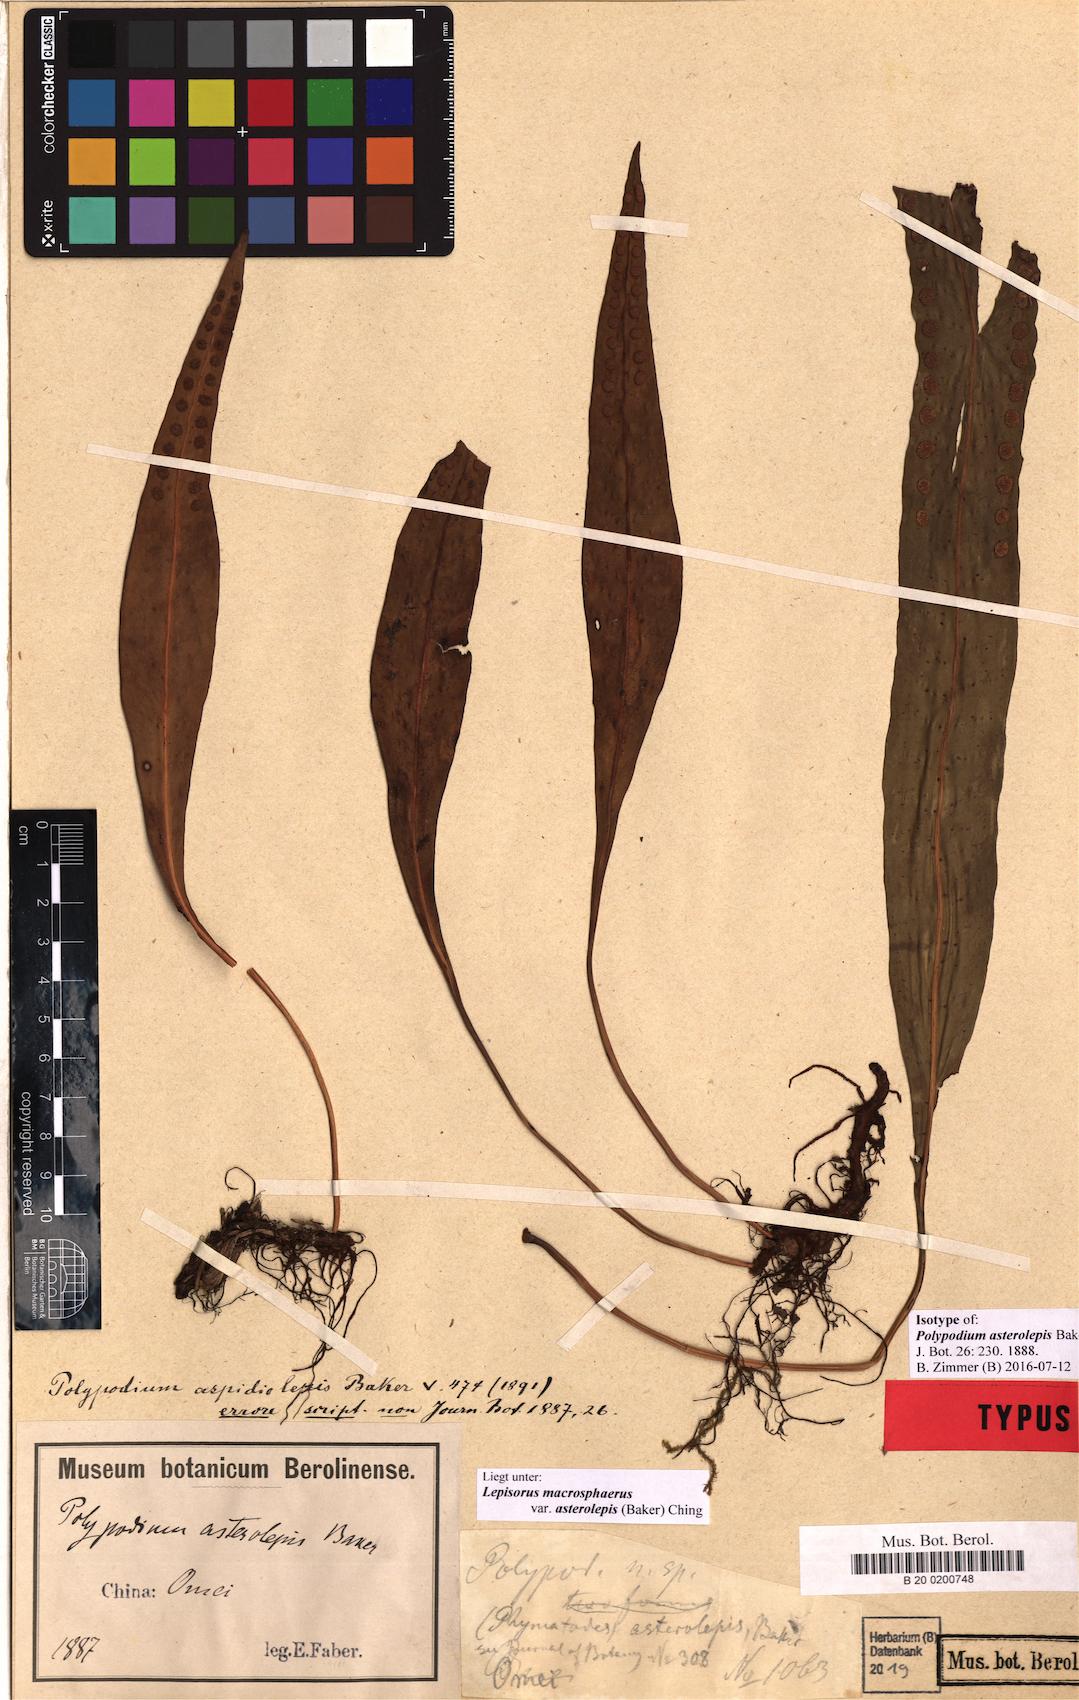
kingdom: Plantae
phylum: Tracheophyta
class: Polypodiopsida
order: Polypodiales
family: Polypodiaceae
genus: Lepisorus
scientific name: Lepisorus asterolepis
